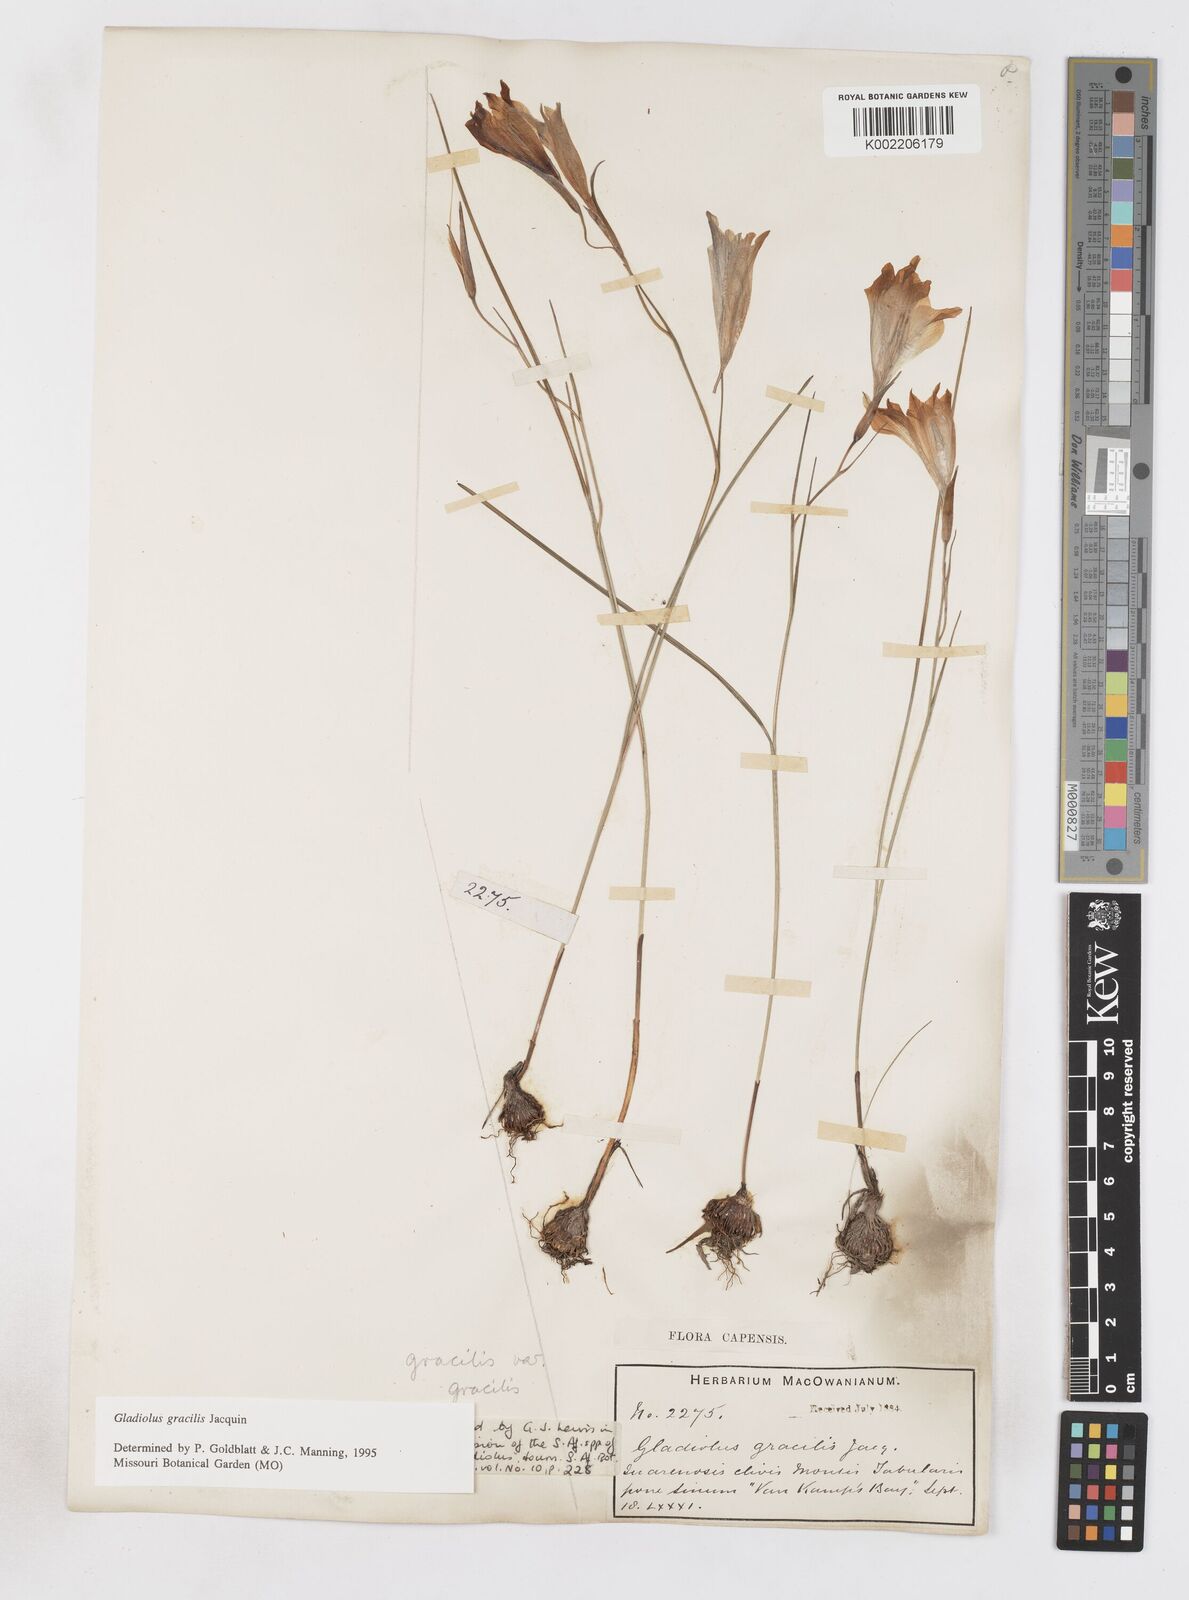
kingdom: Plantae
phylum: Tracheophyta
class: Liliopsida
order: Asparagales
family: Iridaceae
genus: Gladiolus
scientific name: Gladiolus gracilis
